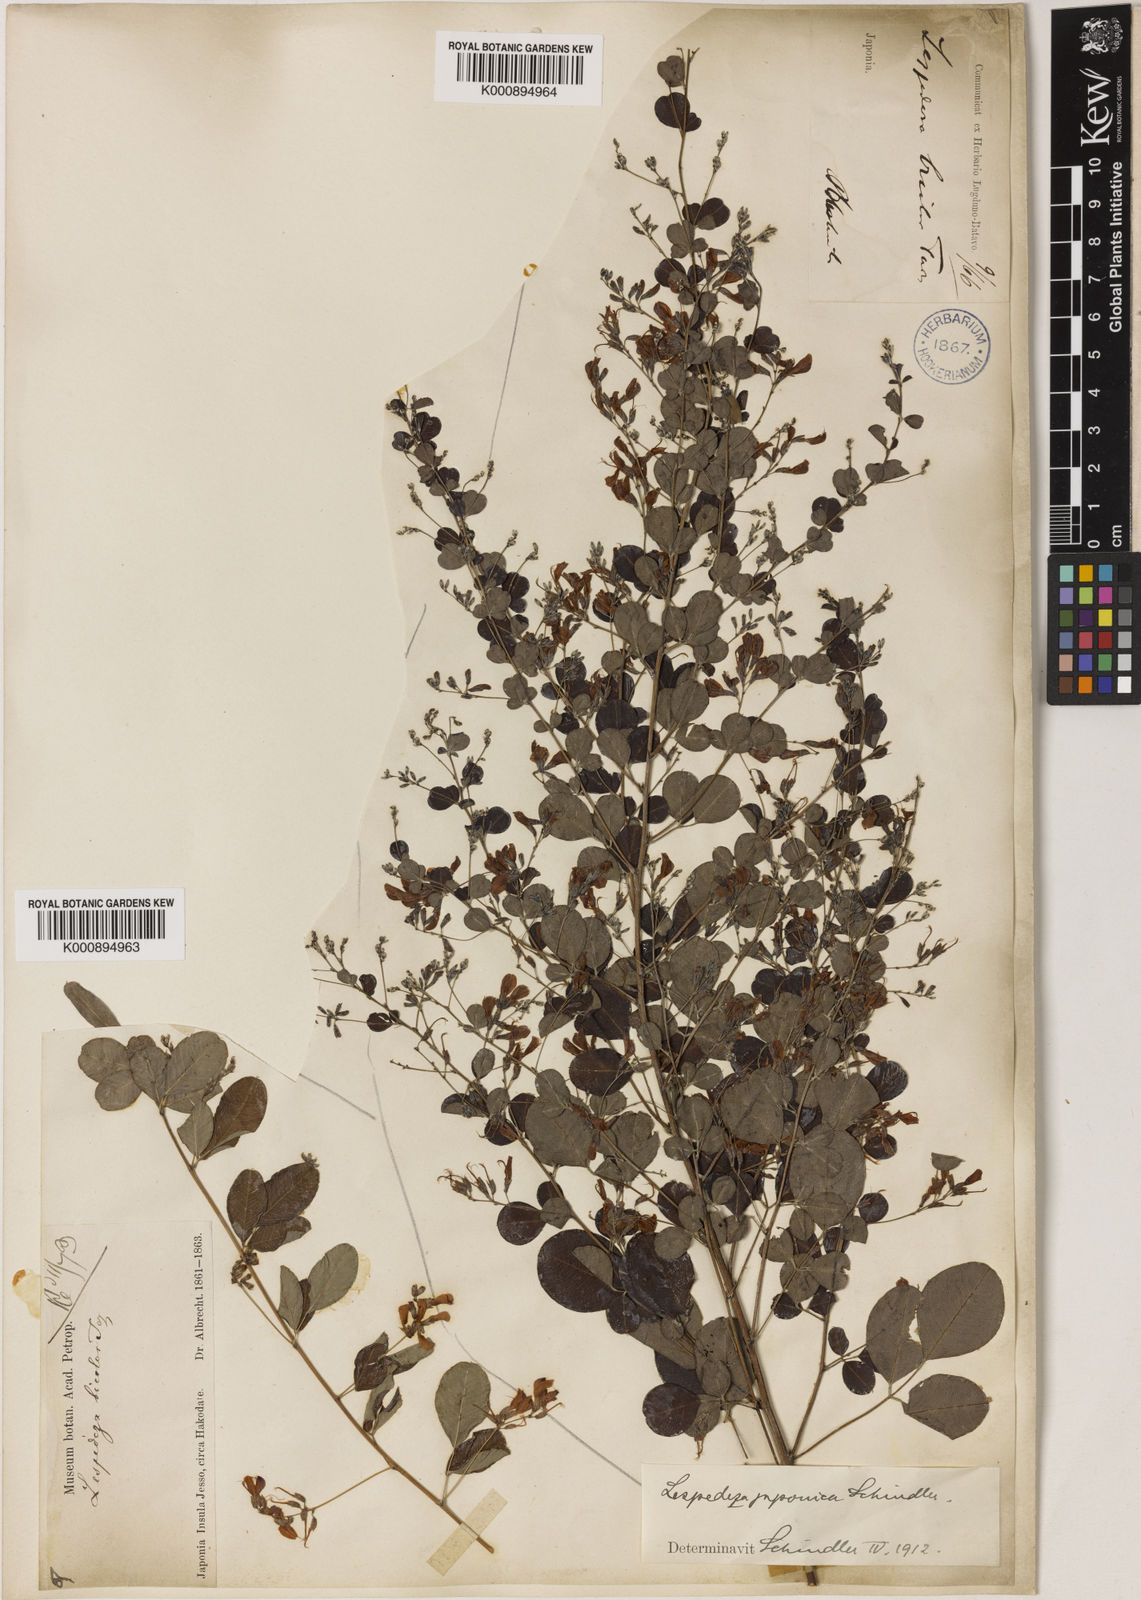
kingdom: Plantae
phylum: Tracheophyta
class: Magnoliopsida
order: Fabales
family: Fabaceae
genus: Lespedeza
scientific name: Lespedeza bicolor
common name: Shrub lespedeza
